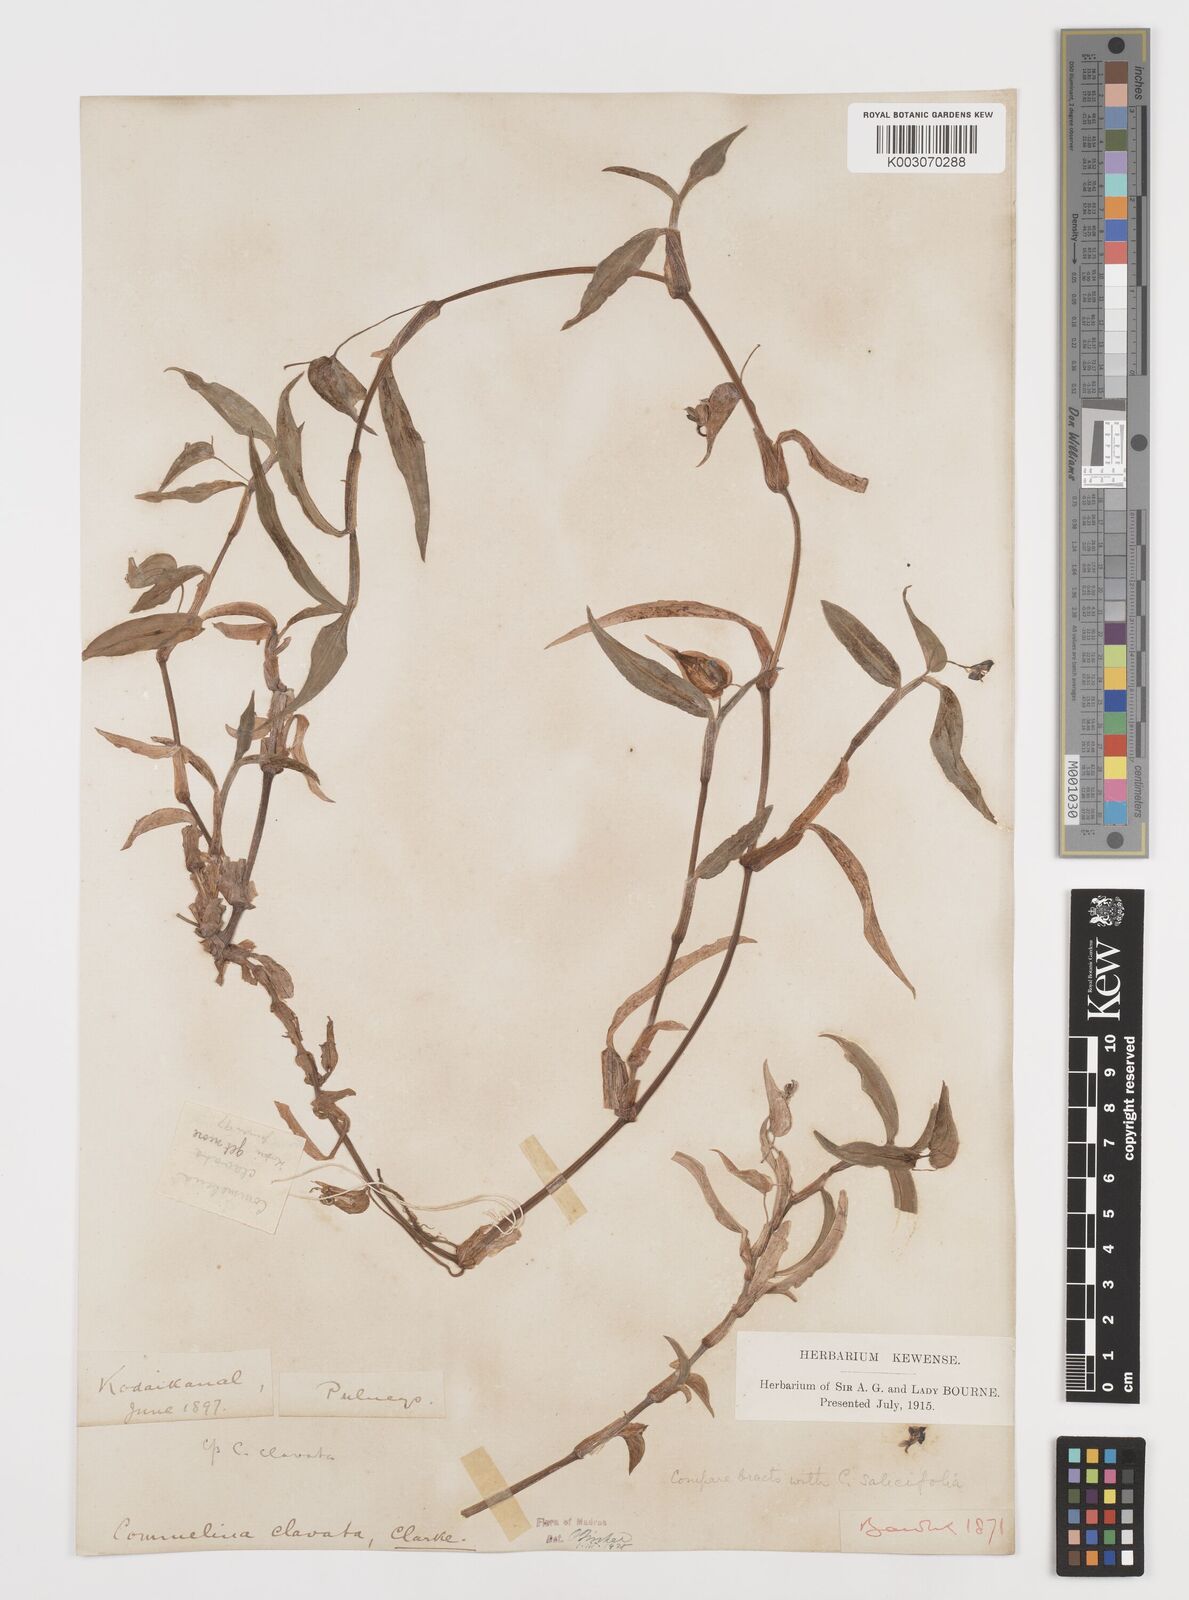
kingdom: Plantae
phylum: Tracheophyta
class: Liliopsida
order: Commelinales
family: Commelinaceae
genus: Commelina
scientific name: Commelina clavata
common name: Willow leaved dayflower
